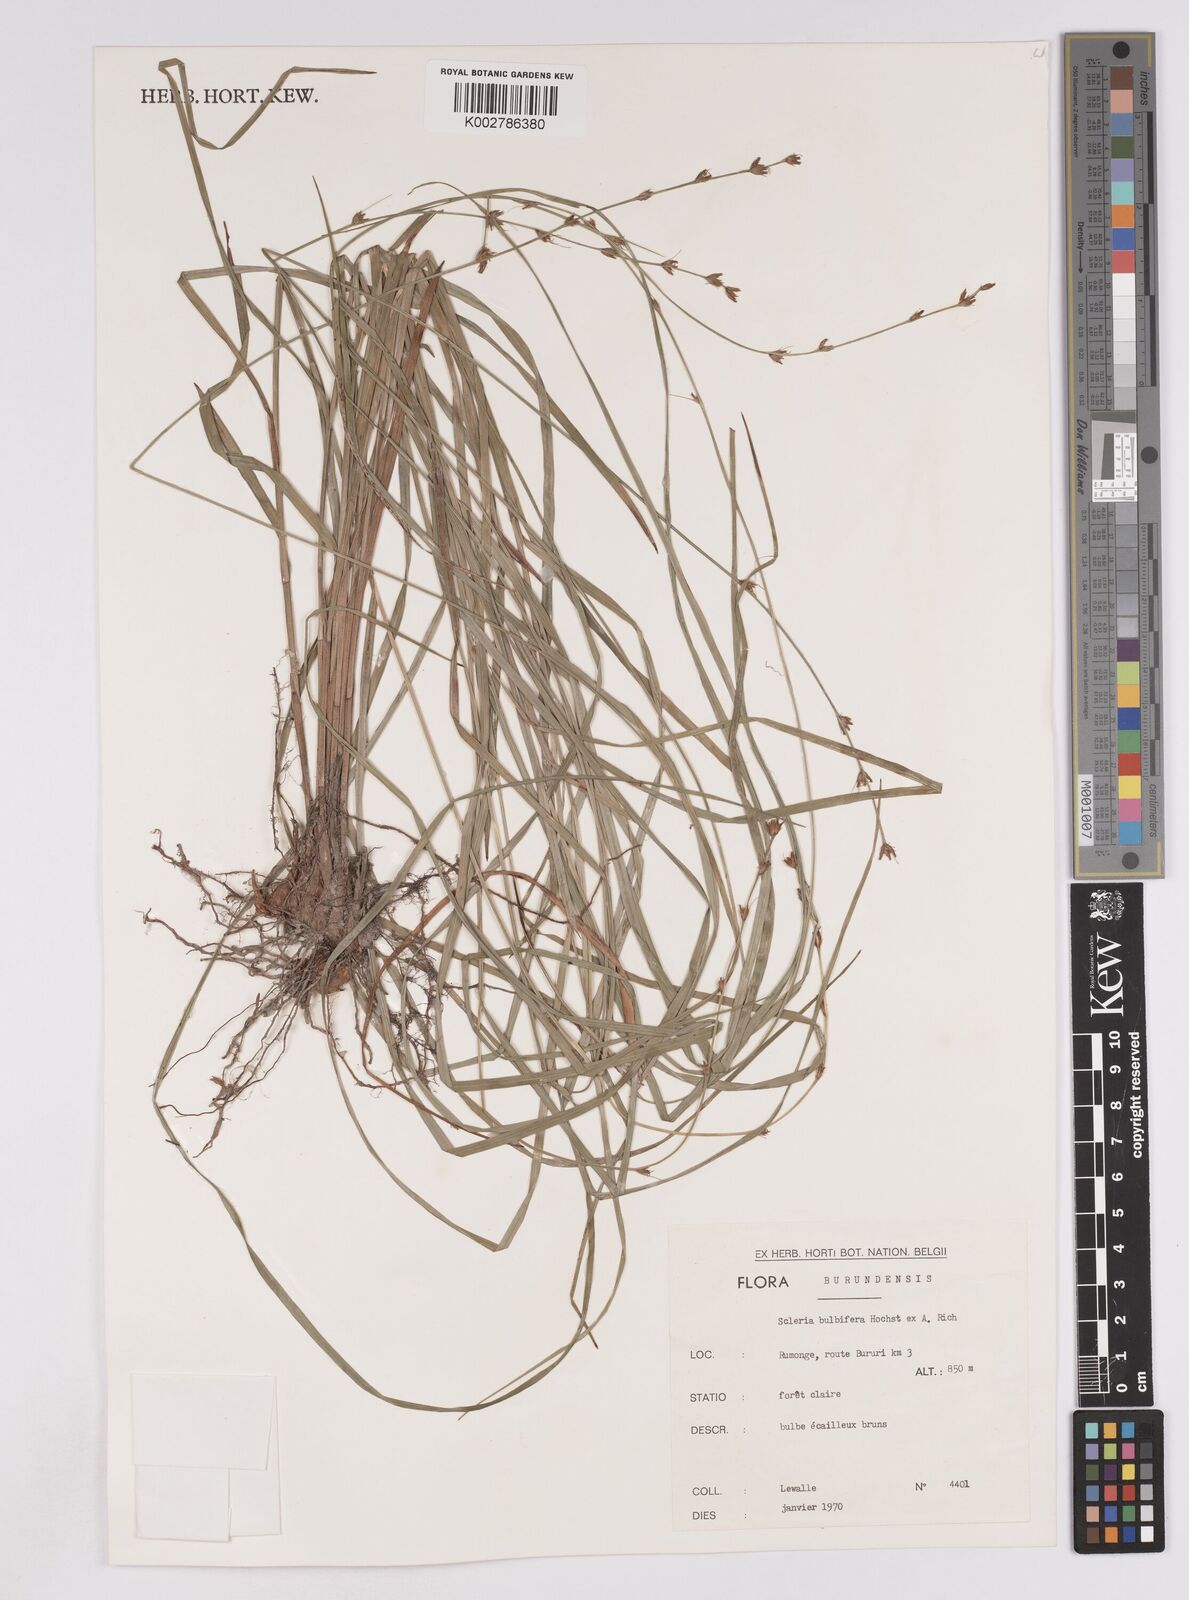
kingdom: Plantae
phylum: Tracheophyta
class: Liliopsida
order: Poales
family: Cyperaceae
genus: Scleria
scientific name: Scleria bulbifera
